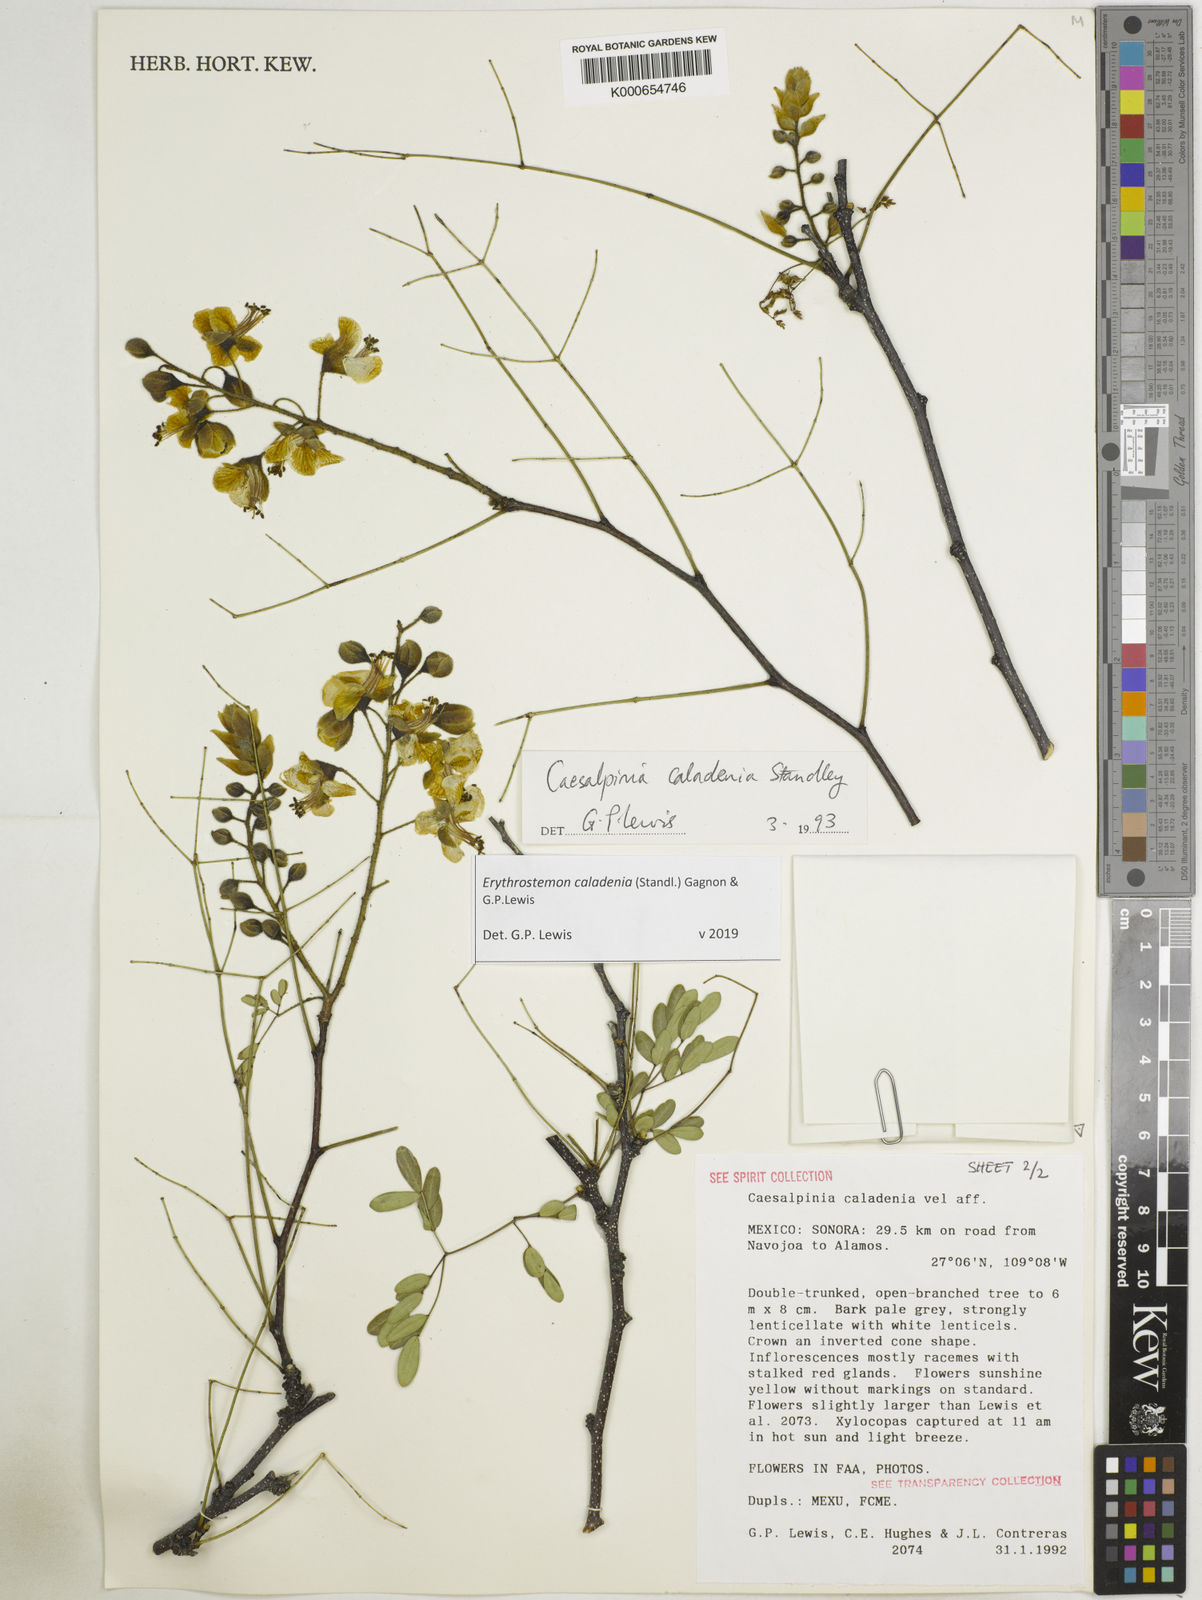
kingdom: Plantae
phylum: Tracheophyta
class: Magnoliopsida
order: Fabales
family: Fabaceae
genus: Erythrostemon
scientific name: Erythrostemon caladenia
